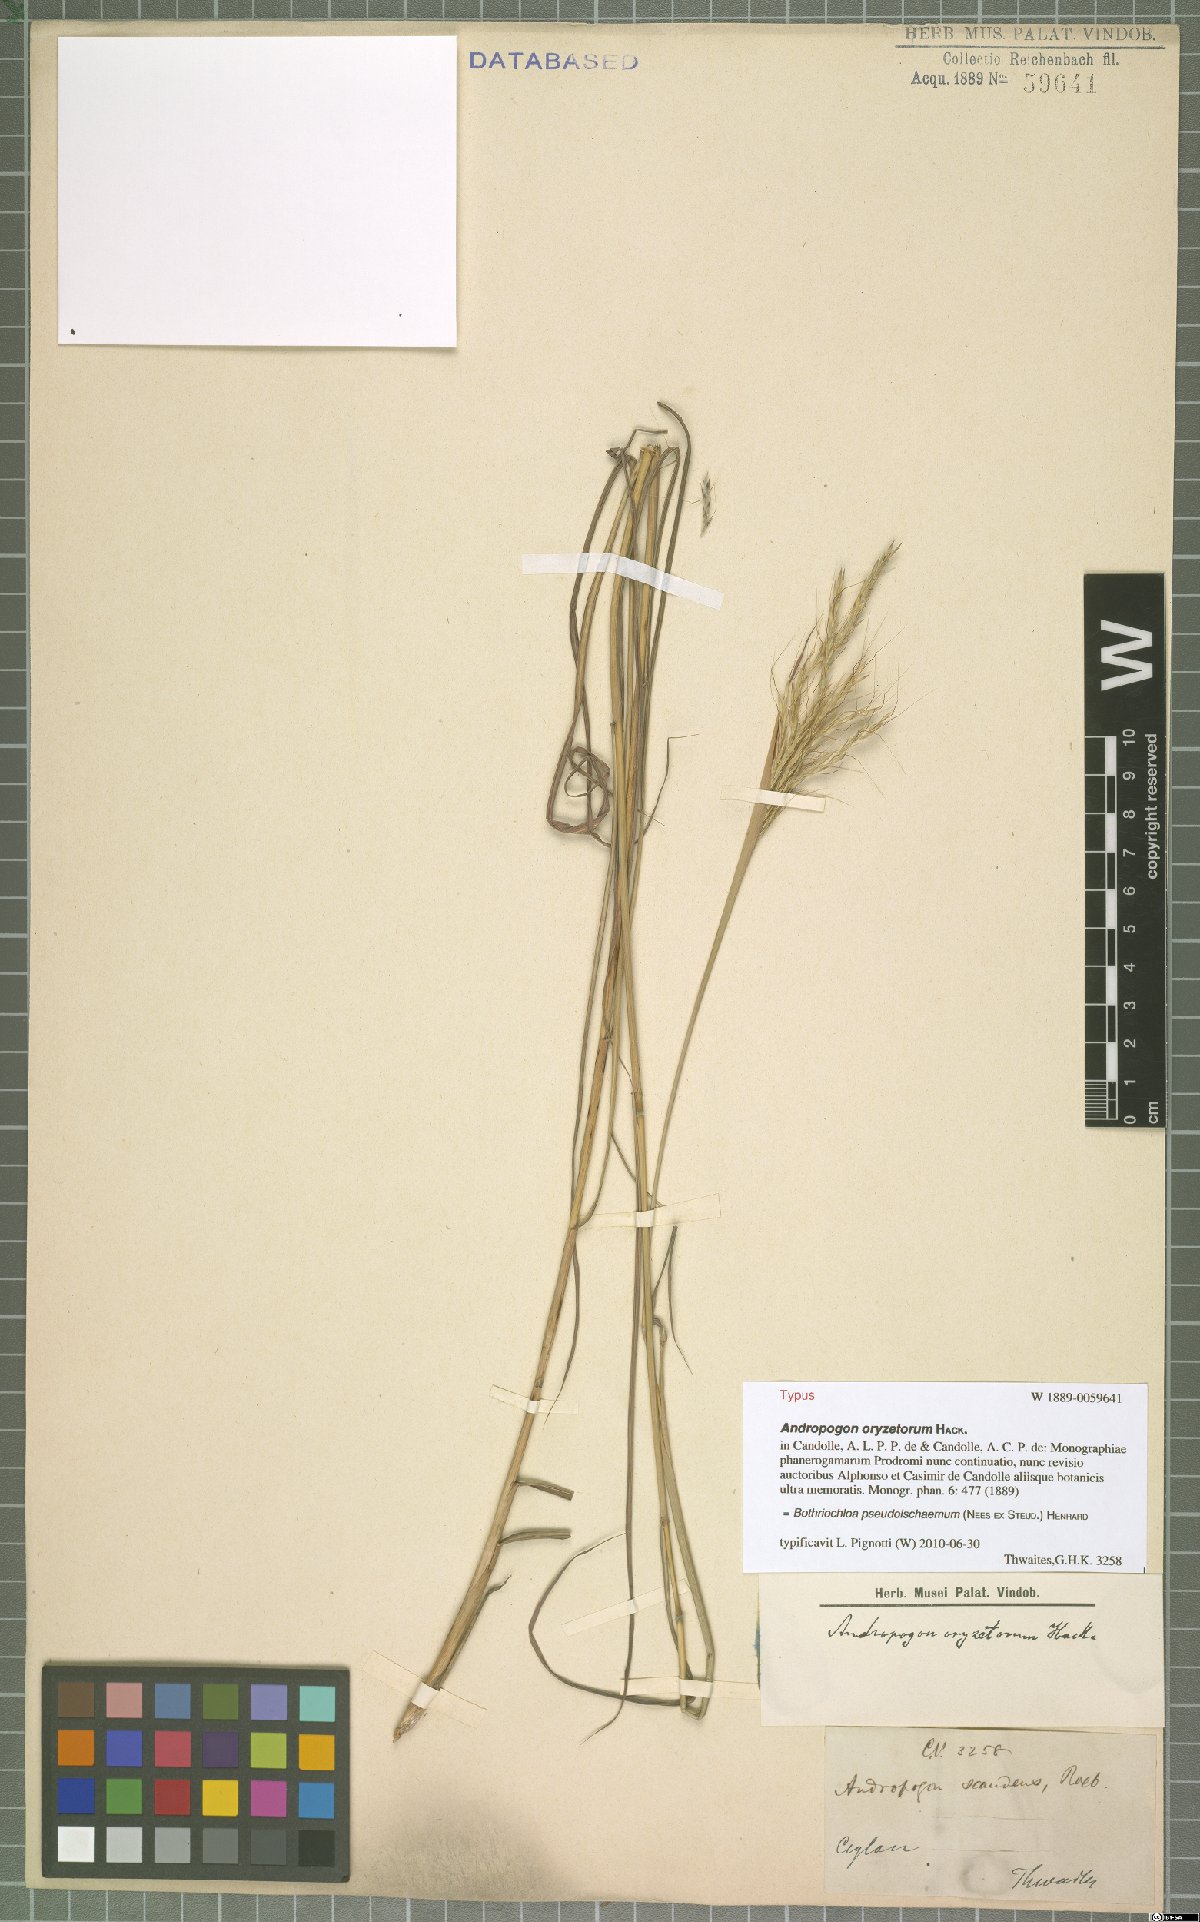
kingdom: Plantae
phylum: Tracheophyta
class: Liliopsida
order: Poales
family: Poaceae
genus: Bothriochloa
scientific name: Bothriochloa pseudoischaemum
